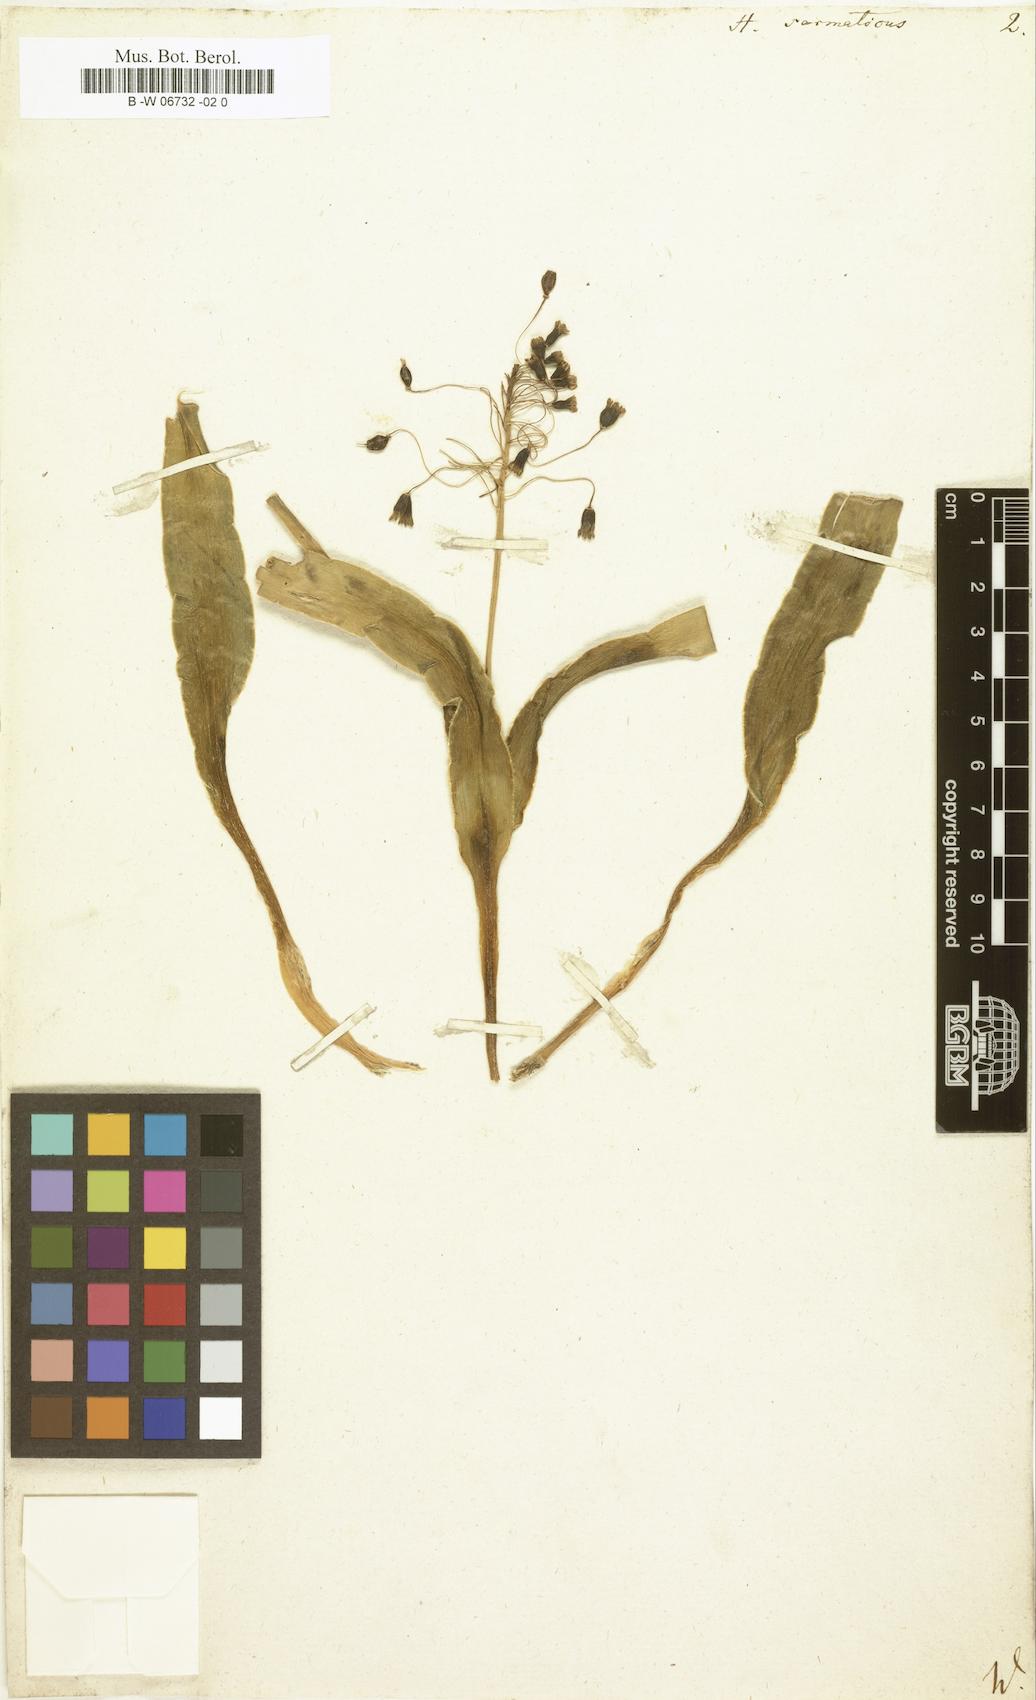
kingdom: Plantae
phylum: Tracheophyta
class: Liliopsida
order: Asparagales
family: Asparagaceae
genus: Bellevalia
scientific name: Bellevalia
